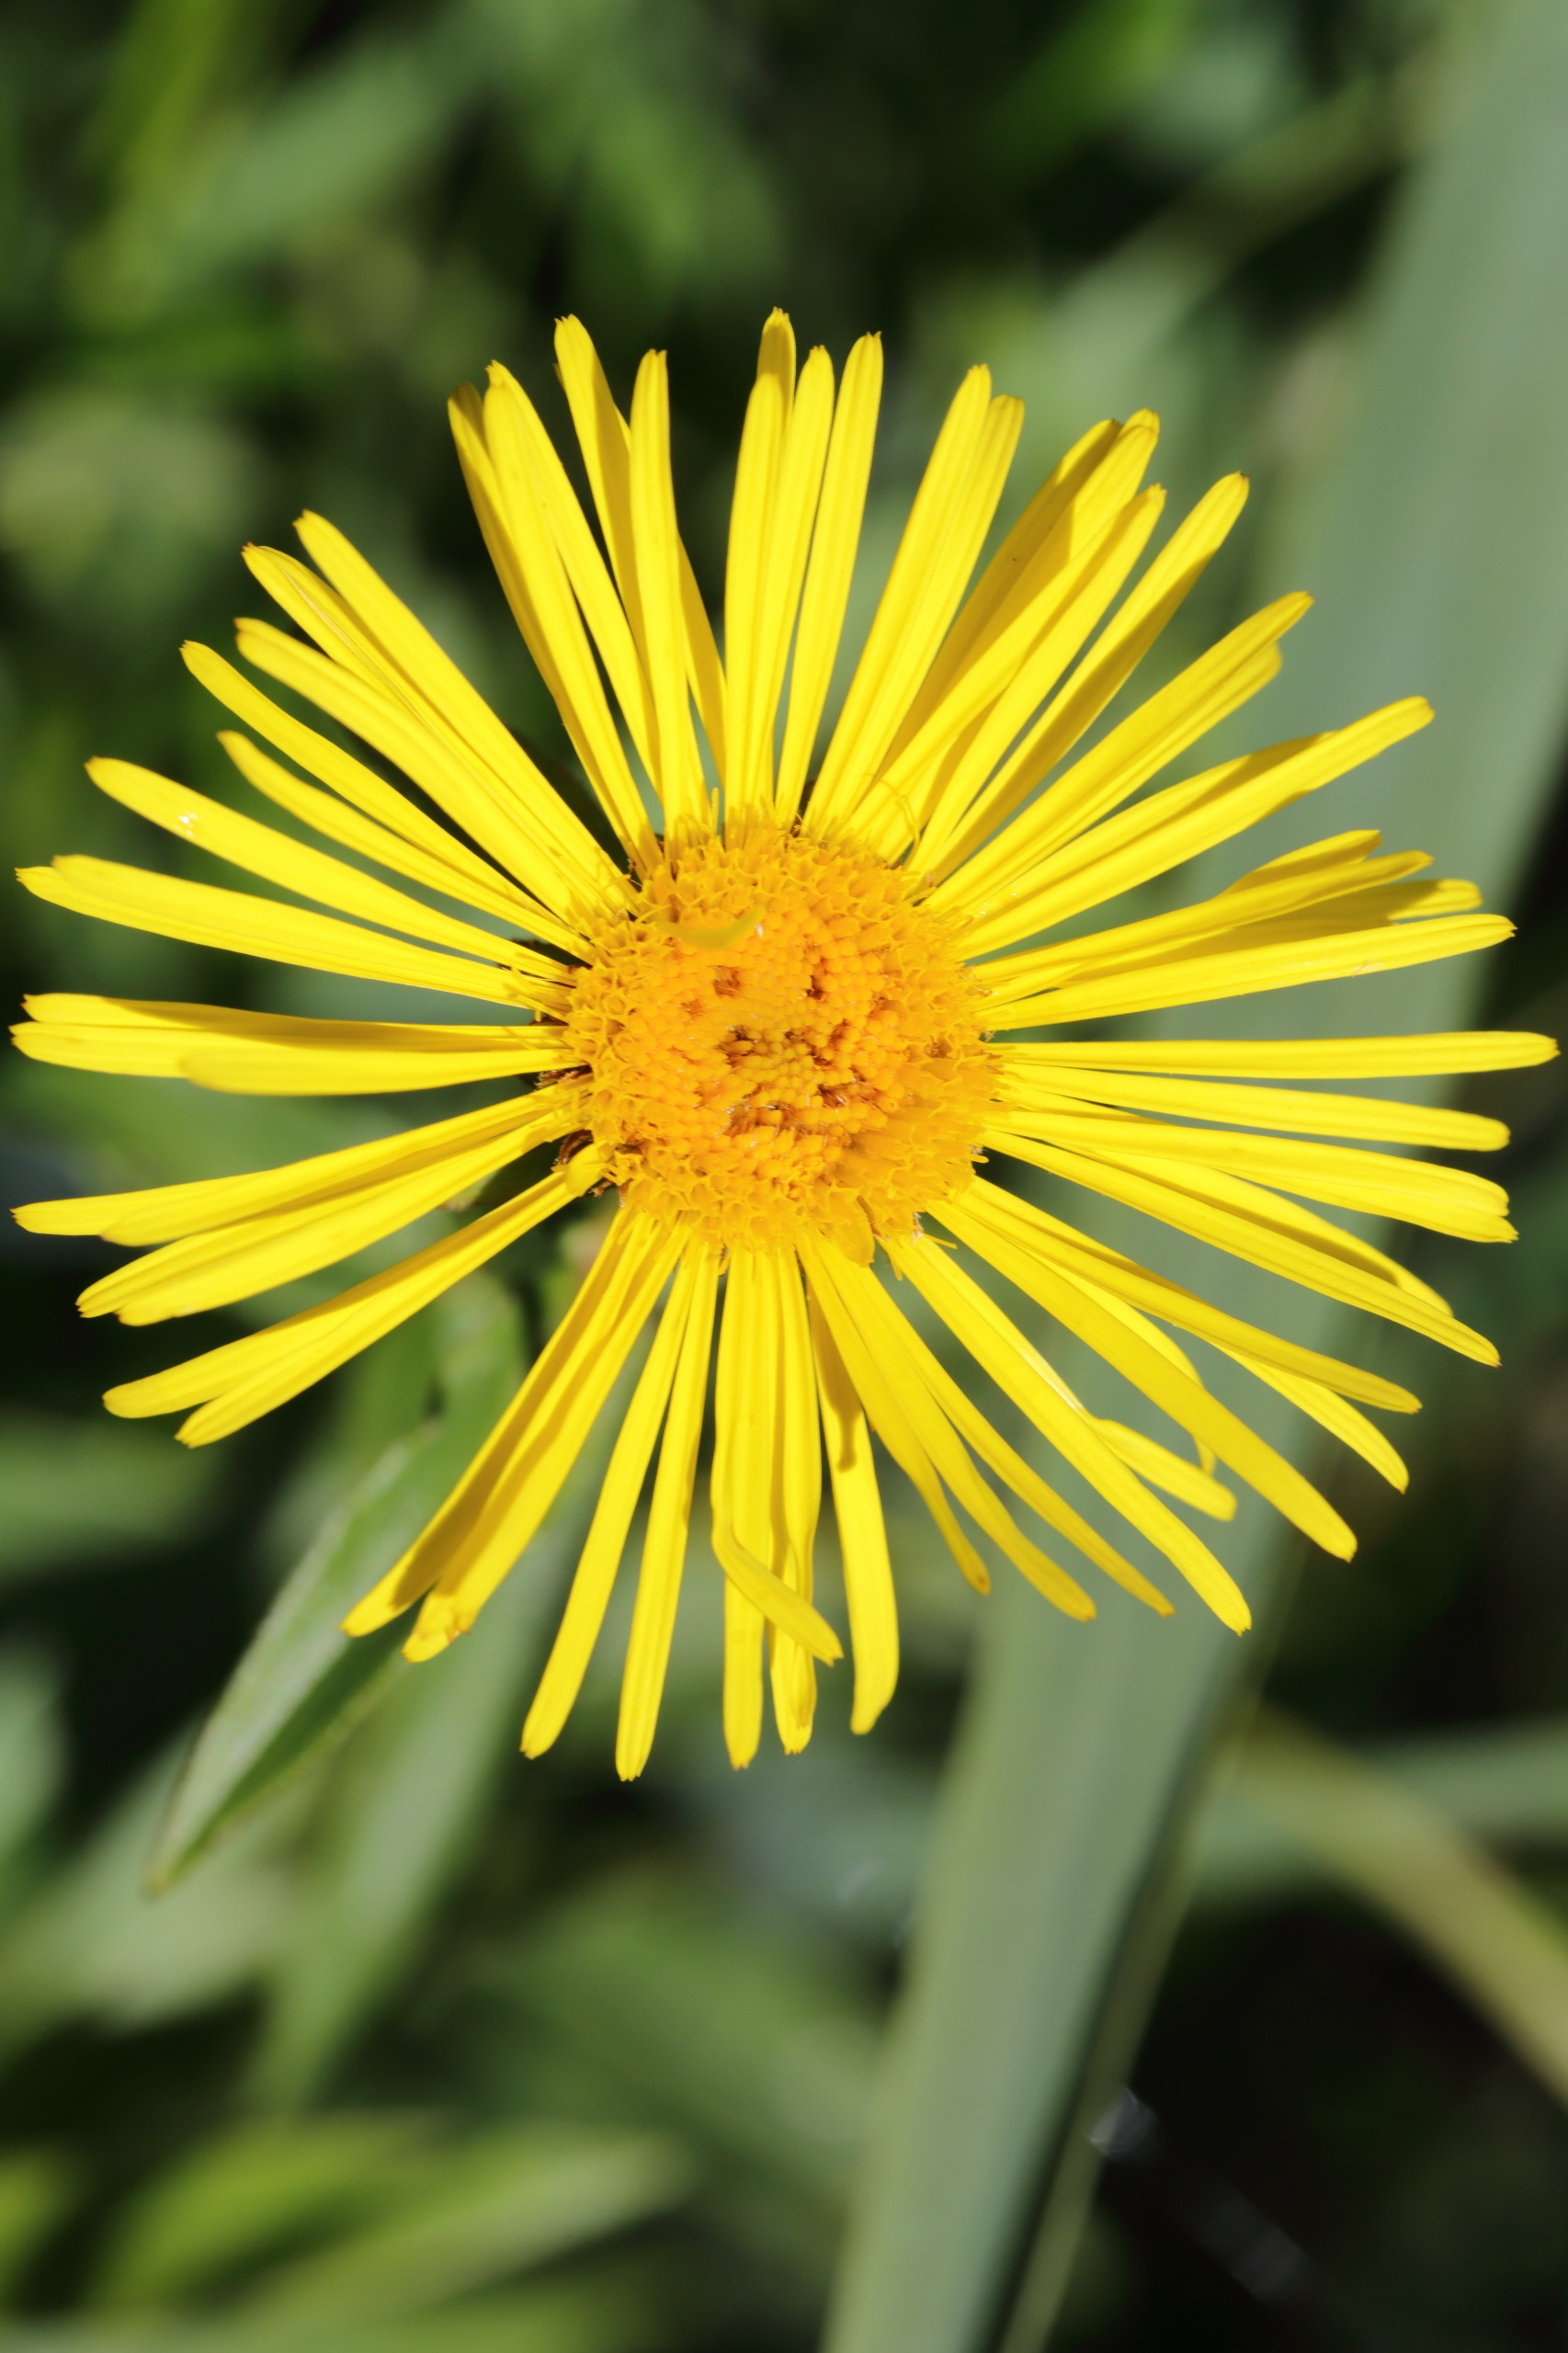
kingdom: Plantae
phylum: Tracheophyta
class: Magnoliopsida
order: Asterales
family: Asteraceae
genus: Pentanema
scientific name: Pentanema salicinum
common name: Pile-alant
